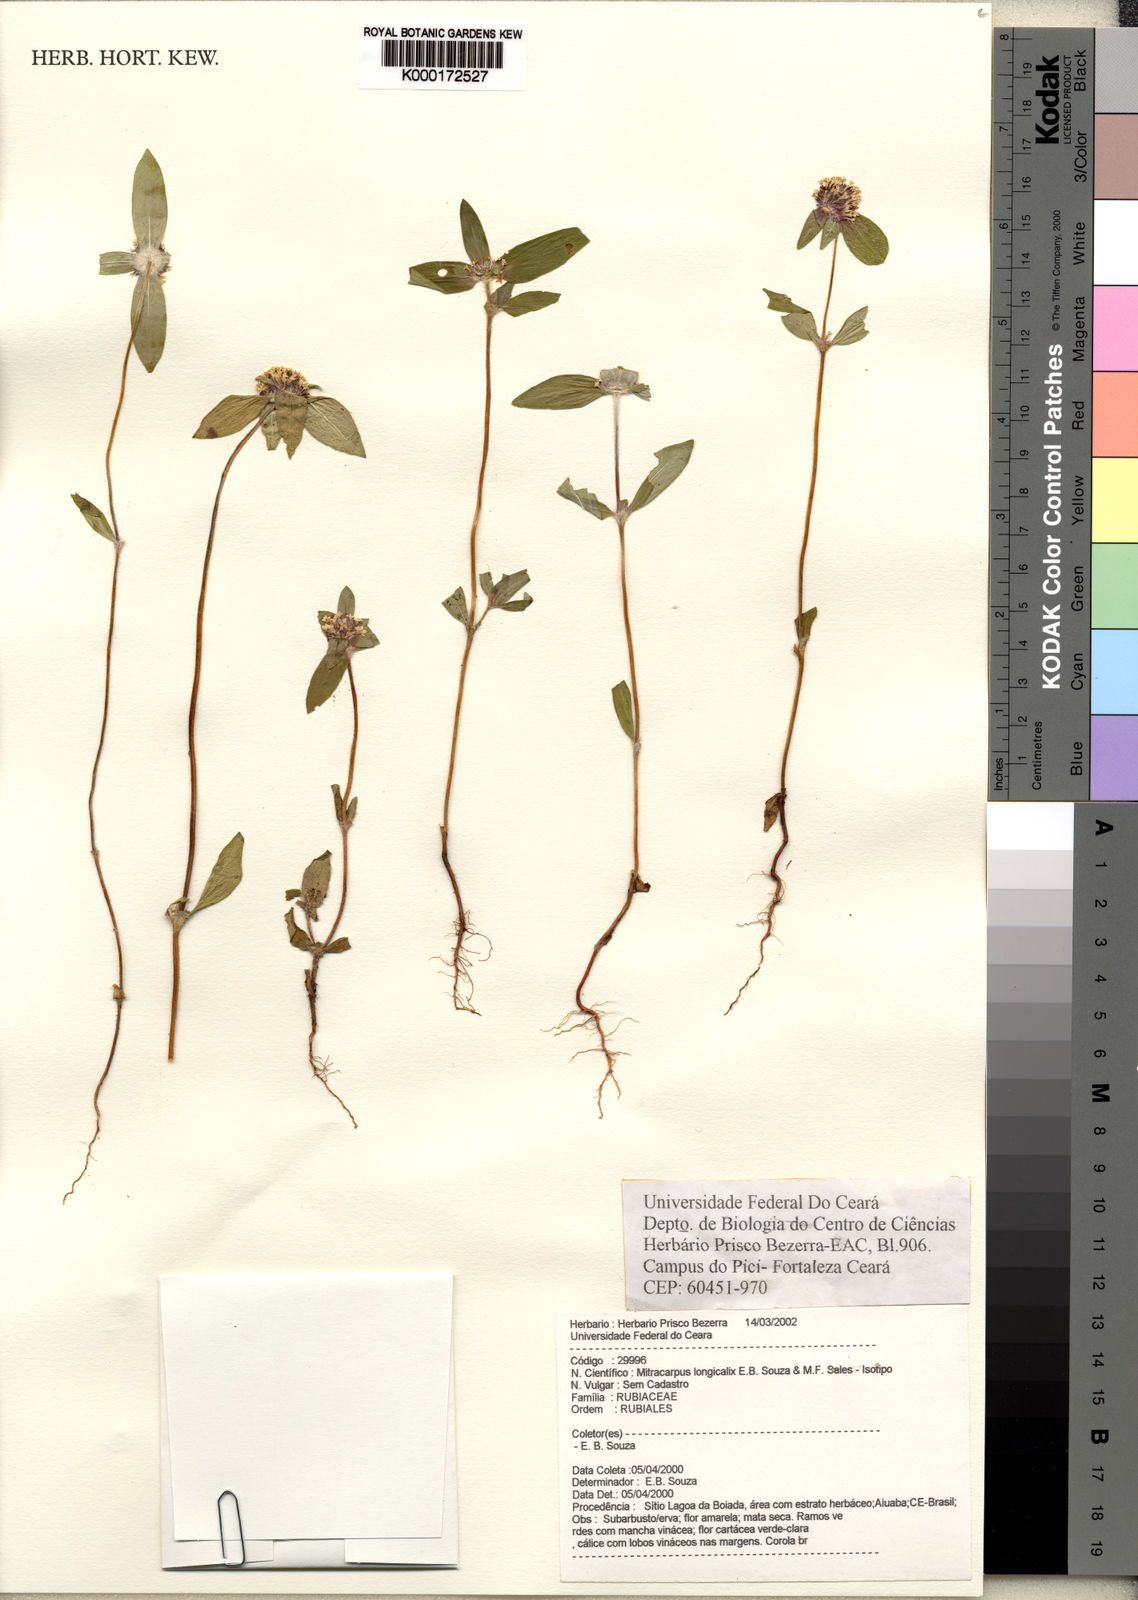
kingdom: Plantae
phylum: Tracheophyta
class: Magnoliopsida
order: Gentianales
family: Rubiaceae
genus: Mitracarpus
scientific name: Mitracarpus longicalyx
